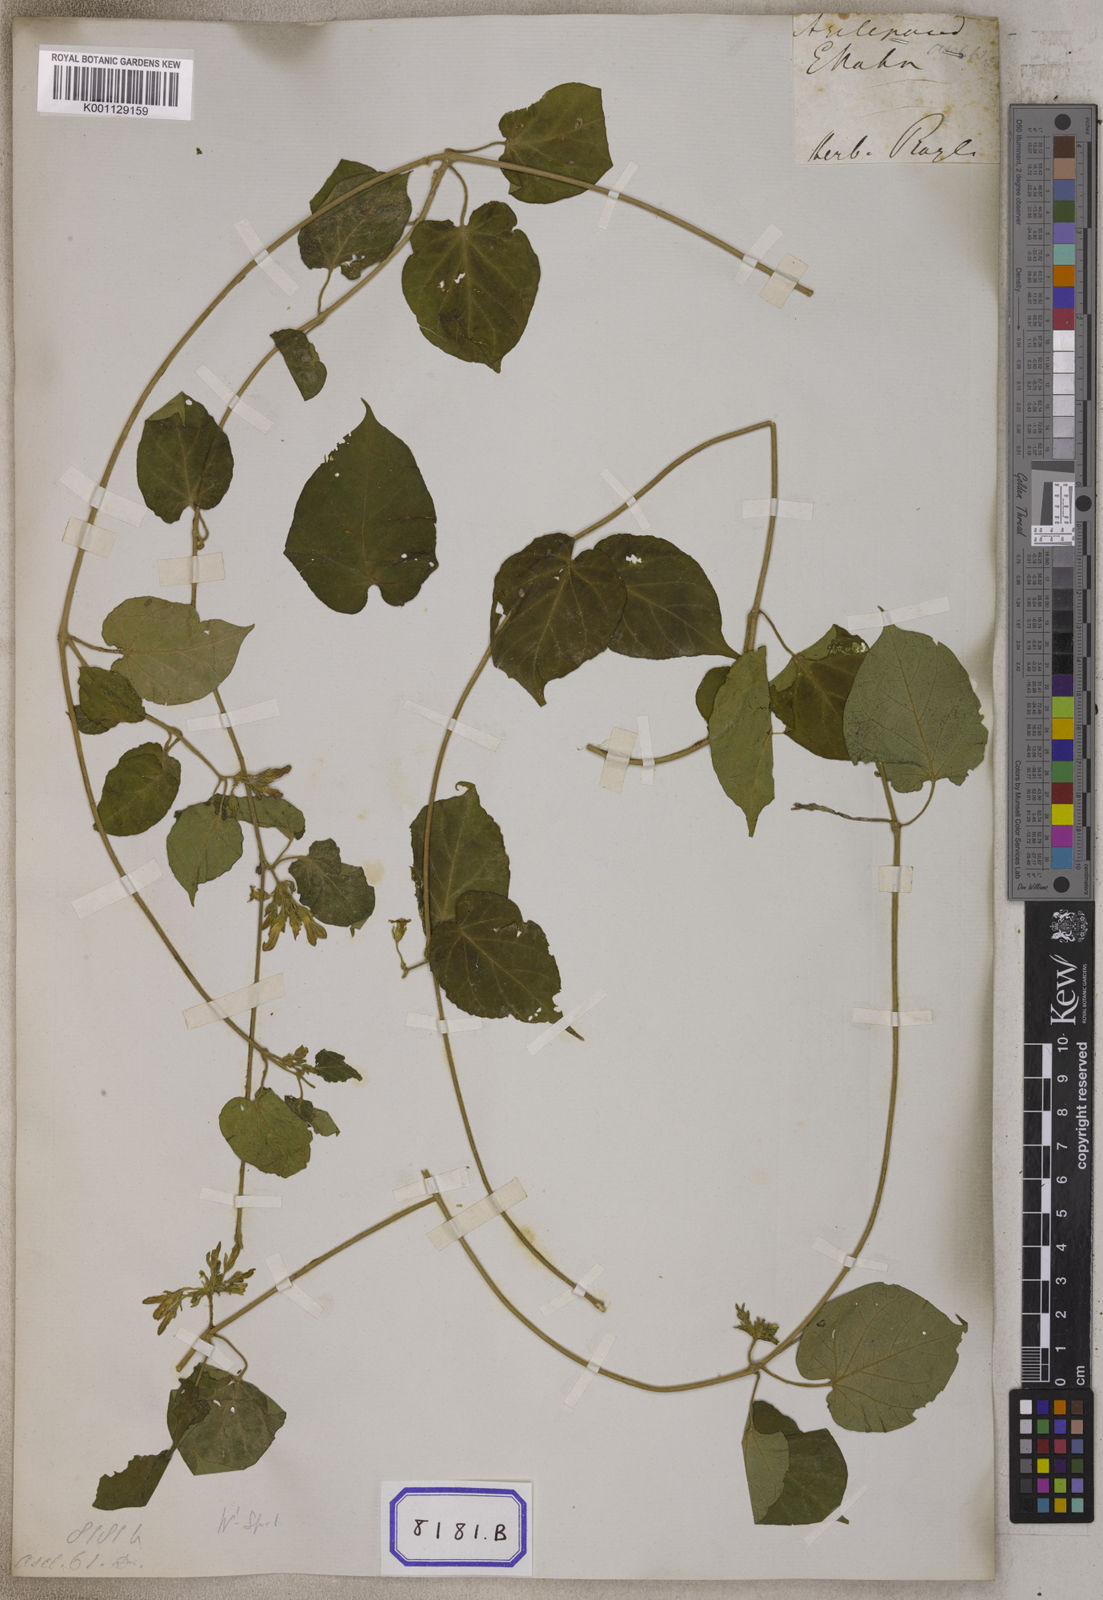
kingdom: Plantae
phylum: Tracheophyta
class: Magnoliopsida
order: Gentianales
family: Apocynaceae
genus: Telosma
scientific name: Telosma pallida
